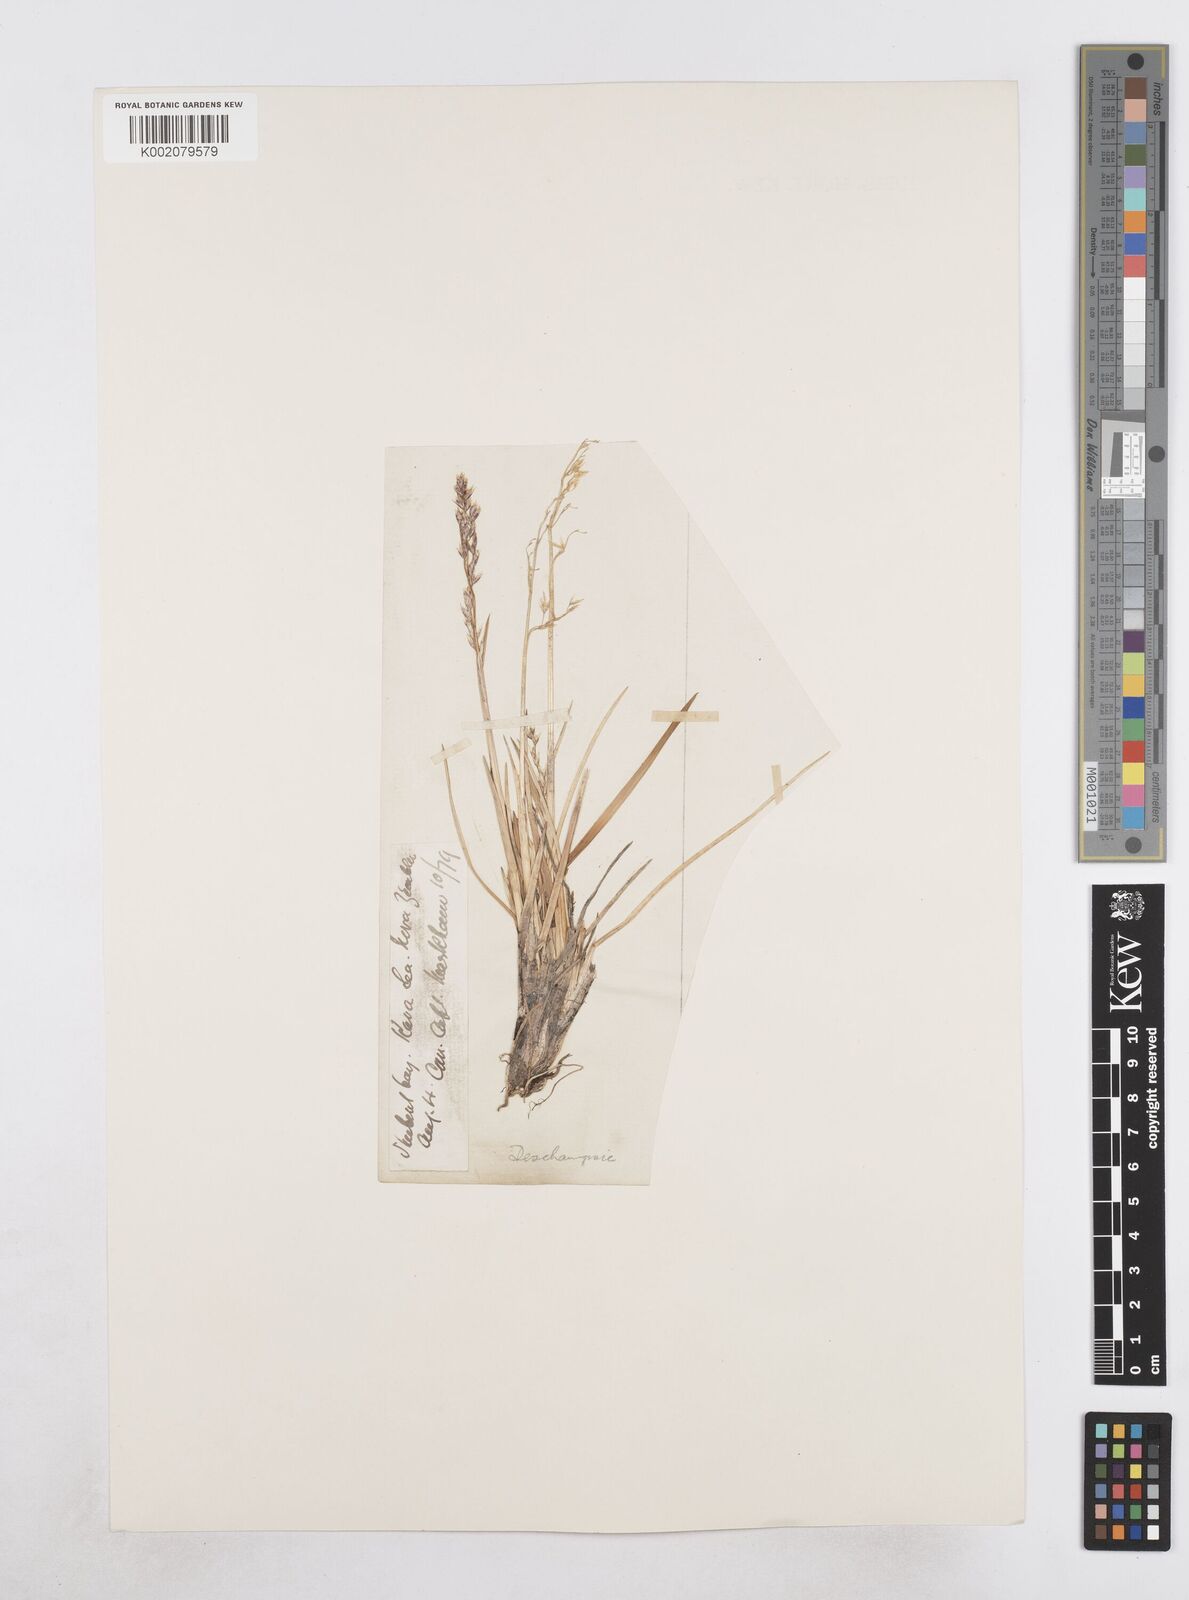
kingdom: Plantae
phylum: Tracheophyta
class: Liliopsida
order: Poales
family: Poaceae
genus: Dupontia
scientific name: Dupontia fisheri
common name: Tundra grass
